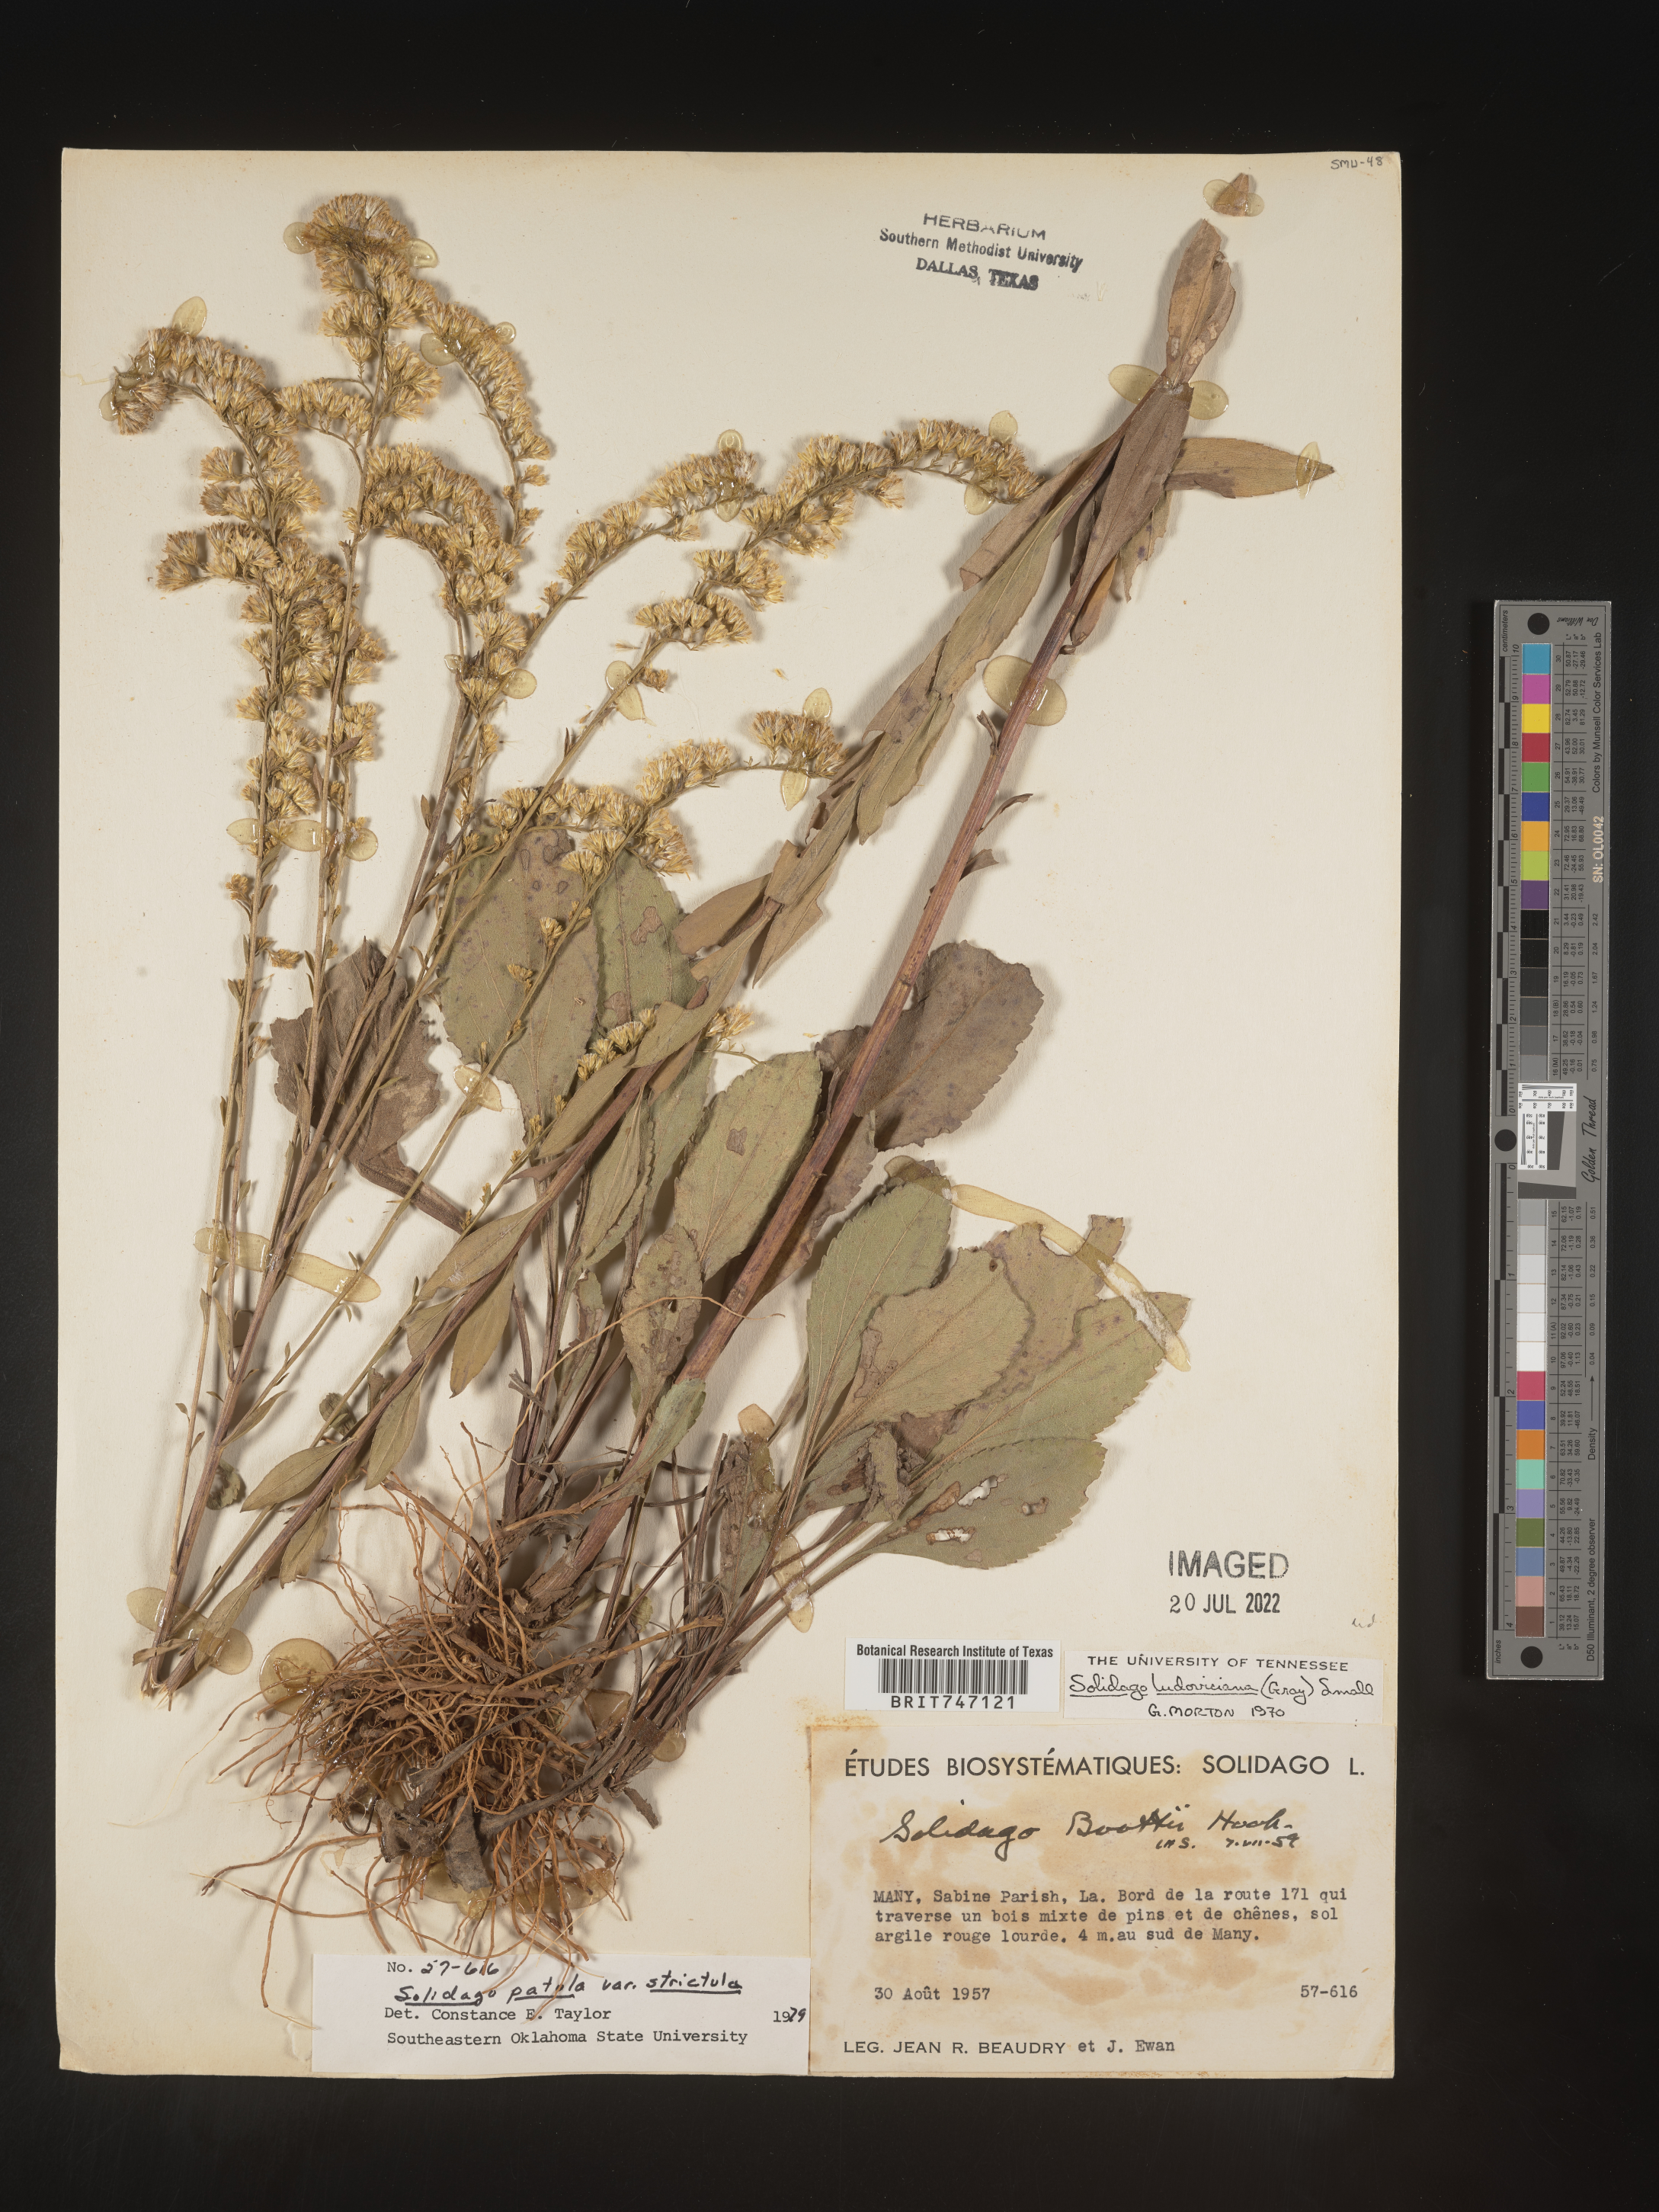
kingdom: Plantae
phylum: Tracheophyta
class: Magnoliopsida
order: Asterales
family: Asteraceae
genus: Solidago
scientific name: Solidago ludoviciana
